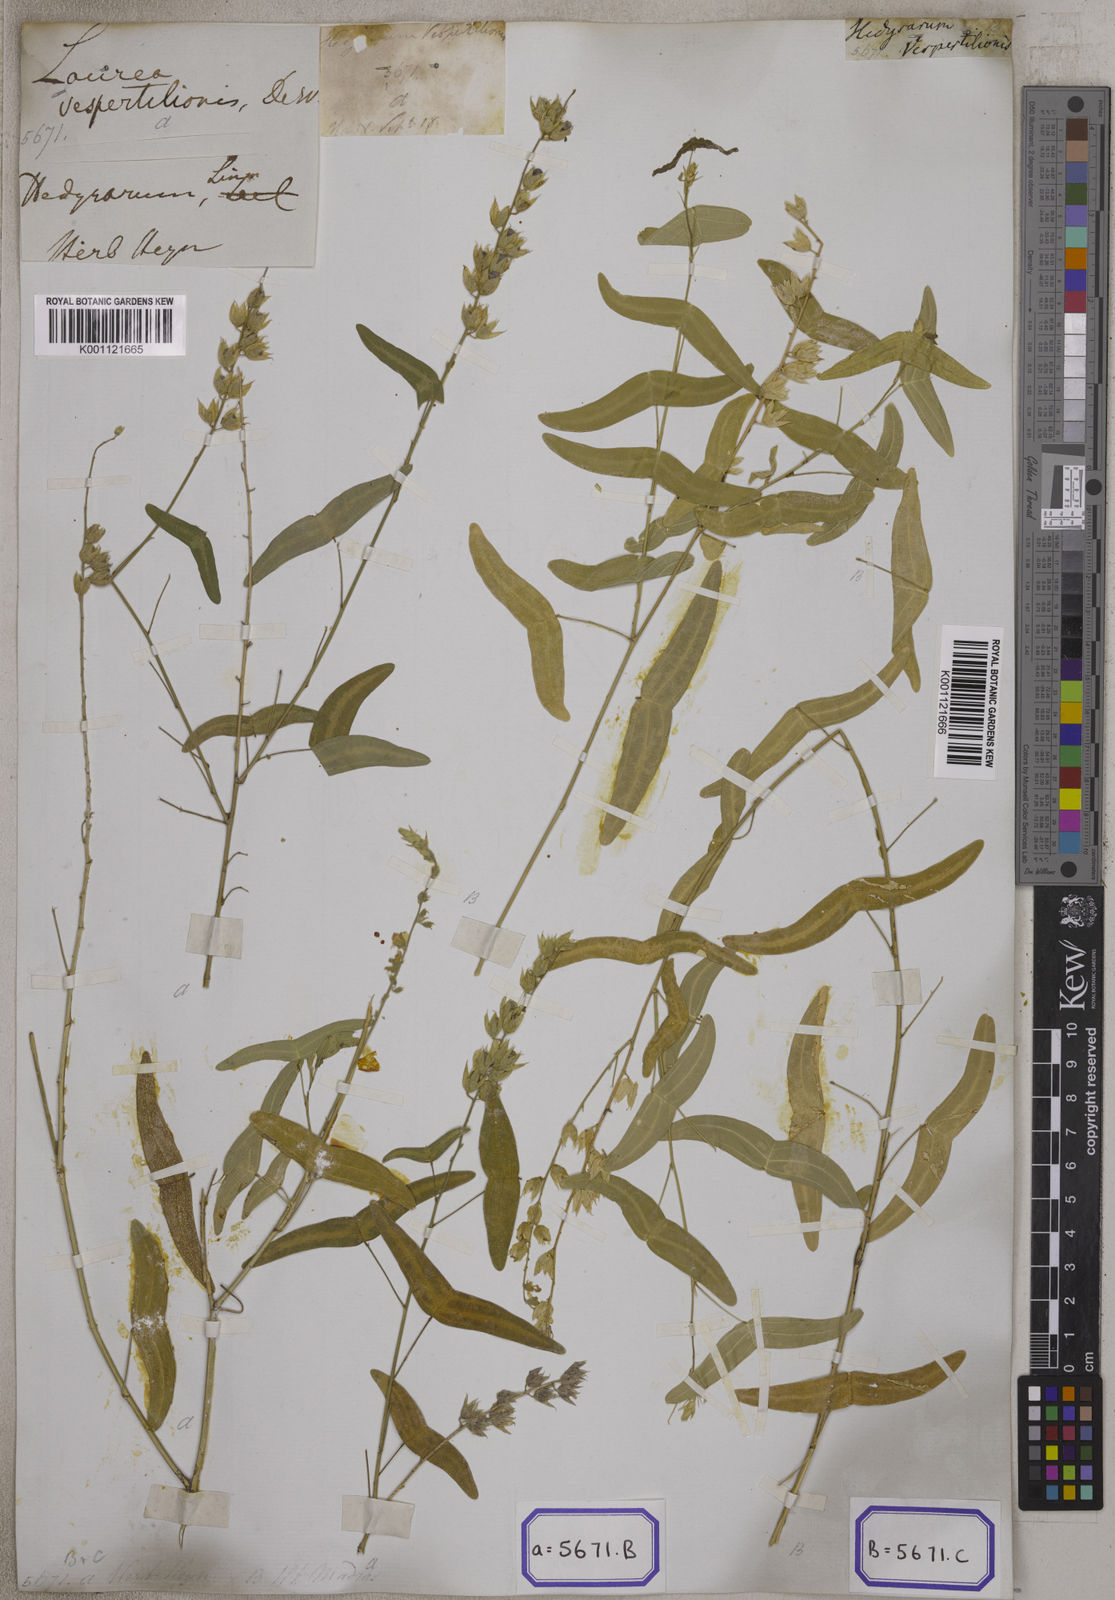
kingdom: Plantae
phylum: Tracheophyta
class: Magnoliopsida
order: Fabales
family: Fabaceae
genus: Christia
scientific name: Christia vespertilionis
